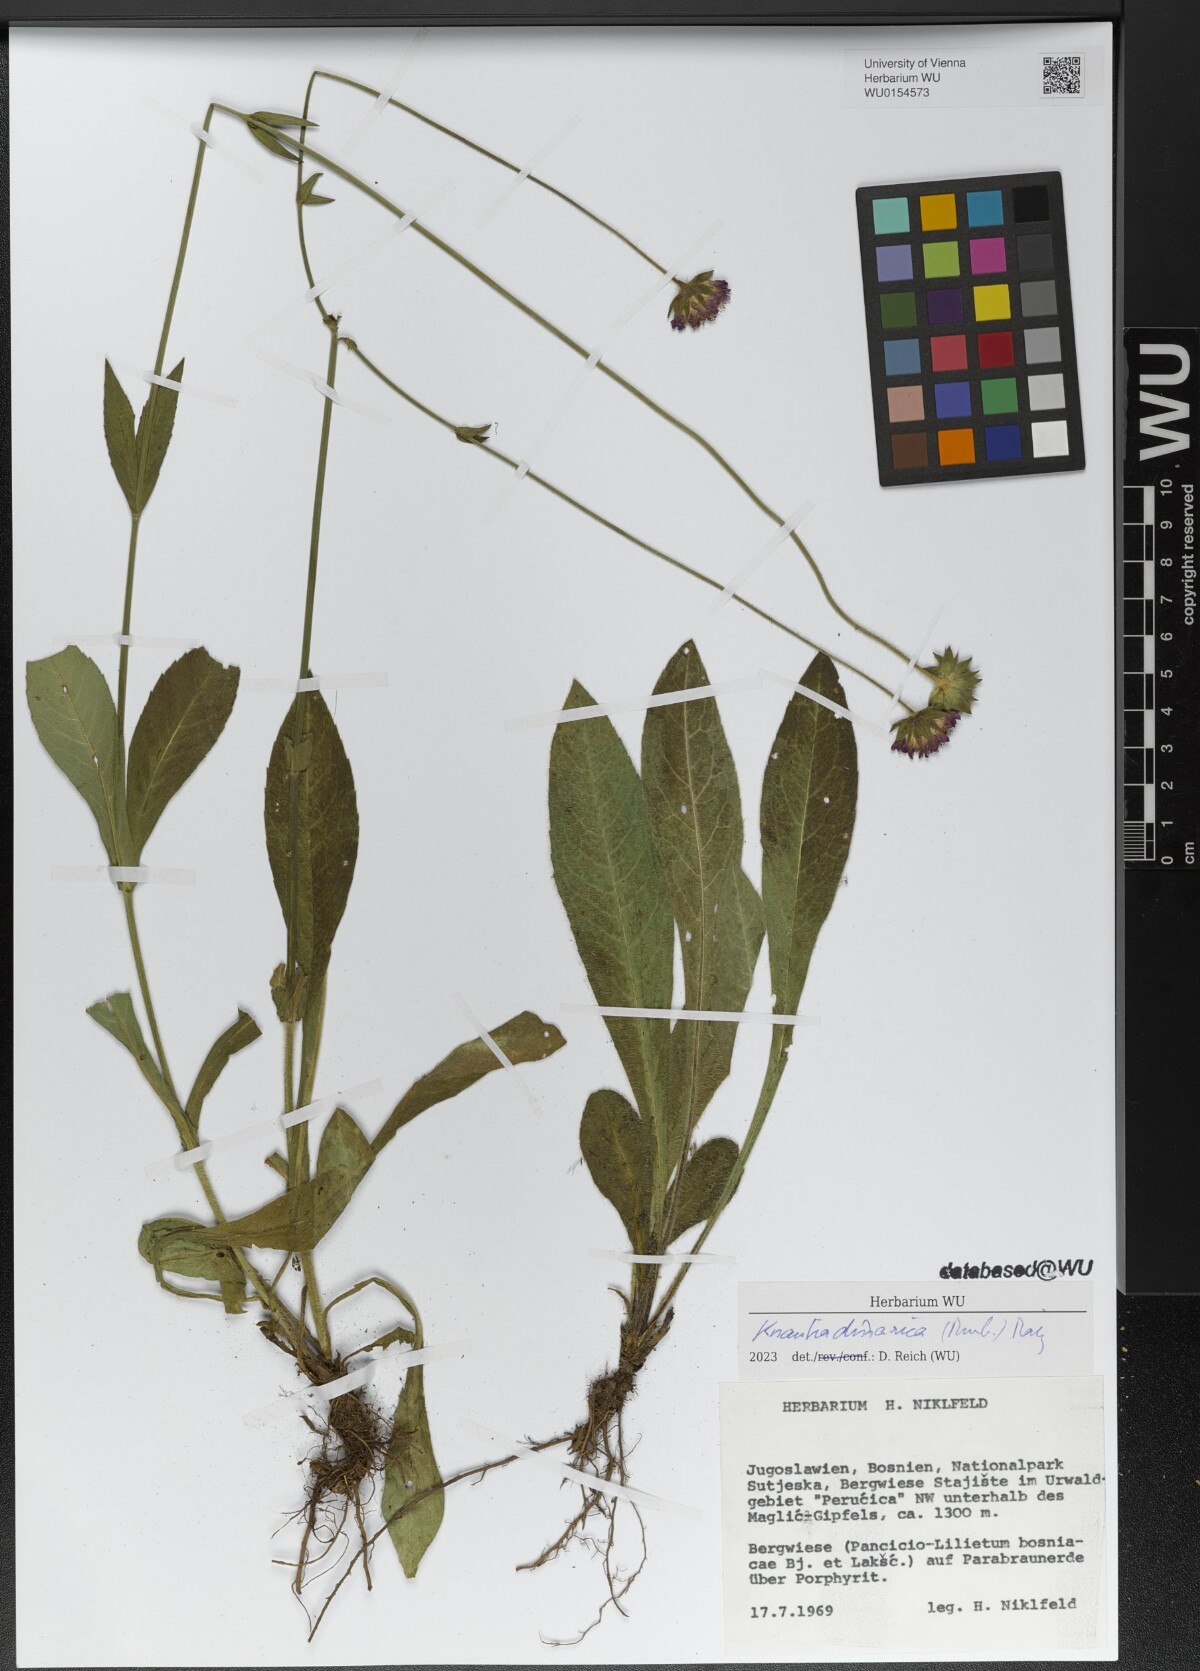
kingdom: Plantae
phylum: Tracheophyta
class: Magnoliopsida
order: Dipsacales
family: Caprifoliaceae
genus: Knautia
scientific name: Knautia dinarica
